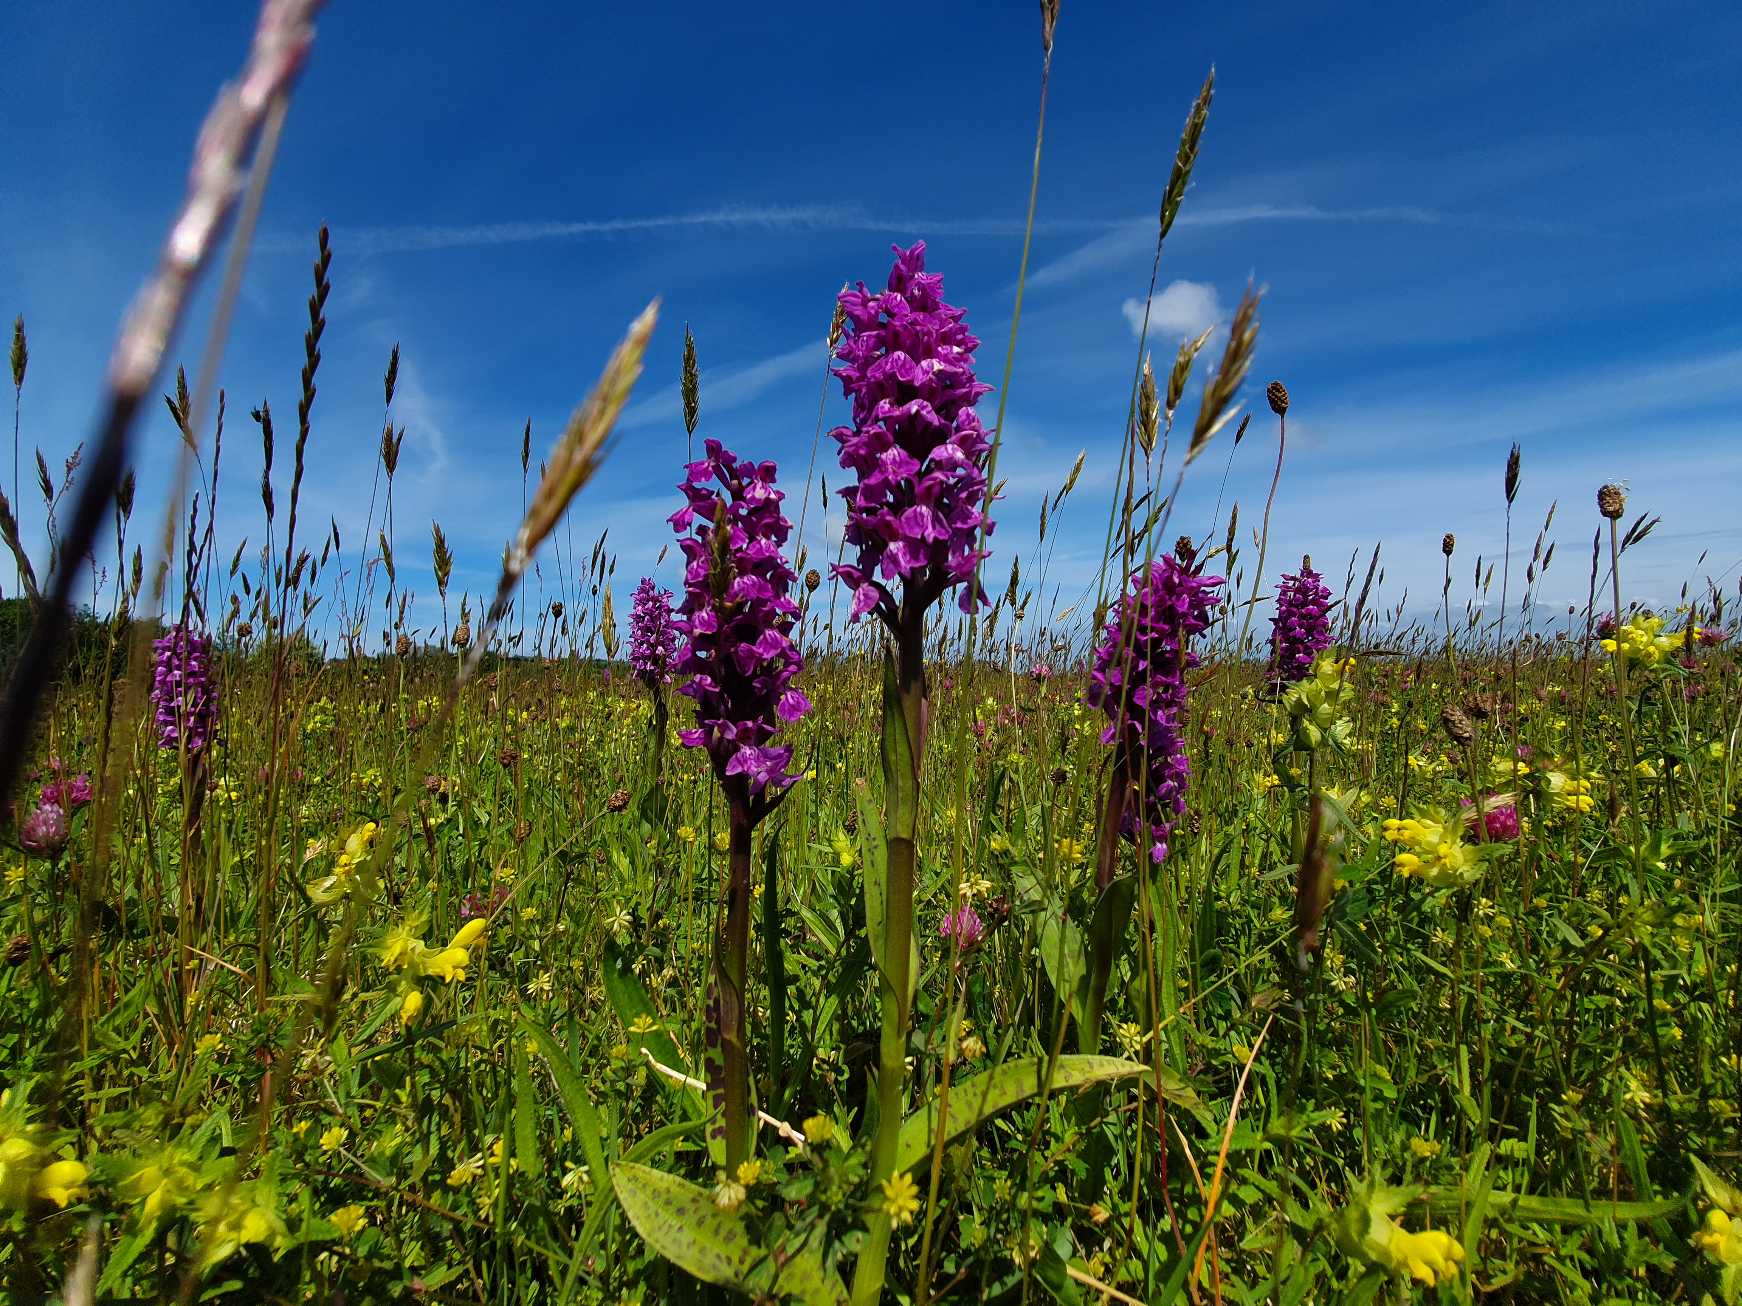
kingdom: Plantae
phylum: Tracheophyta
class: Liliopsida
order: Asparagales
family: Orchidaceae
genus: Dactylorhiza
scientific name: Dactylorhiza majalis
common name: Maj-gøgeurt
